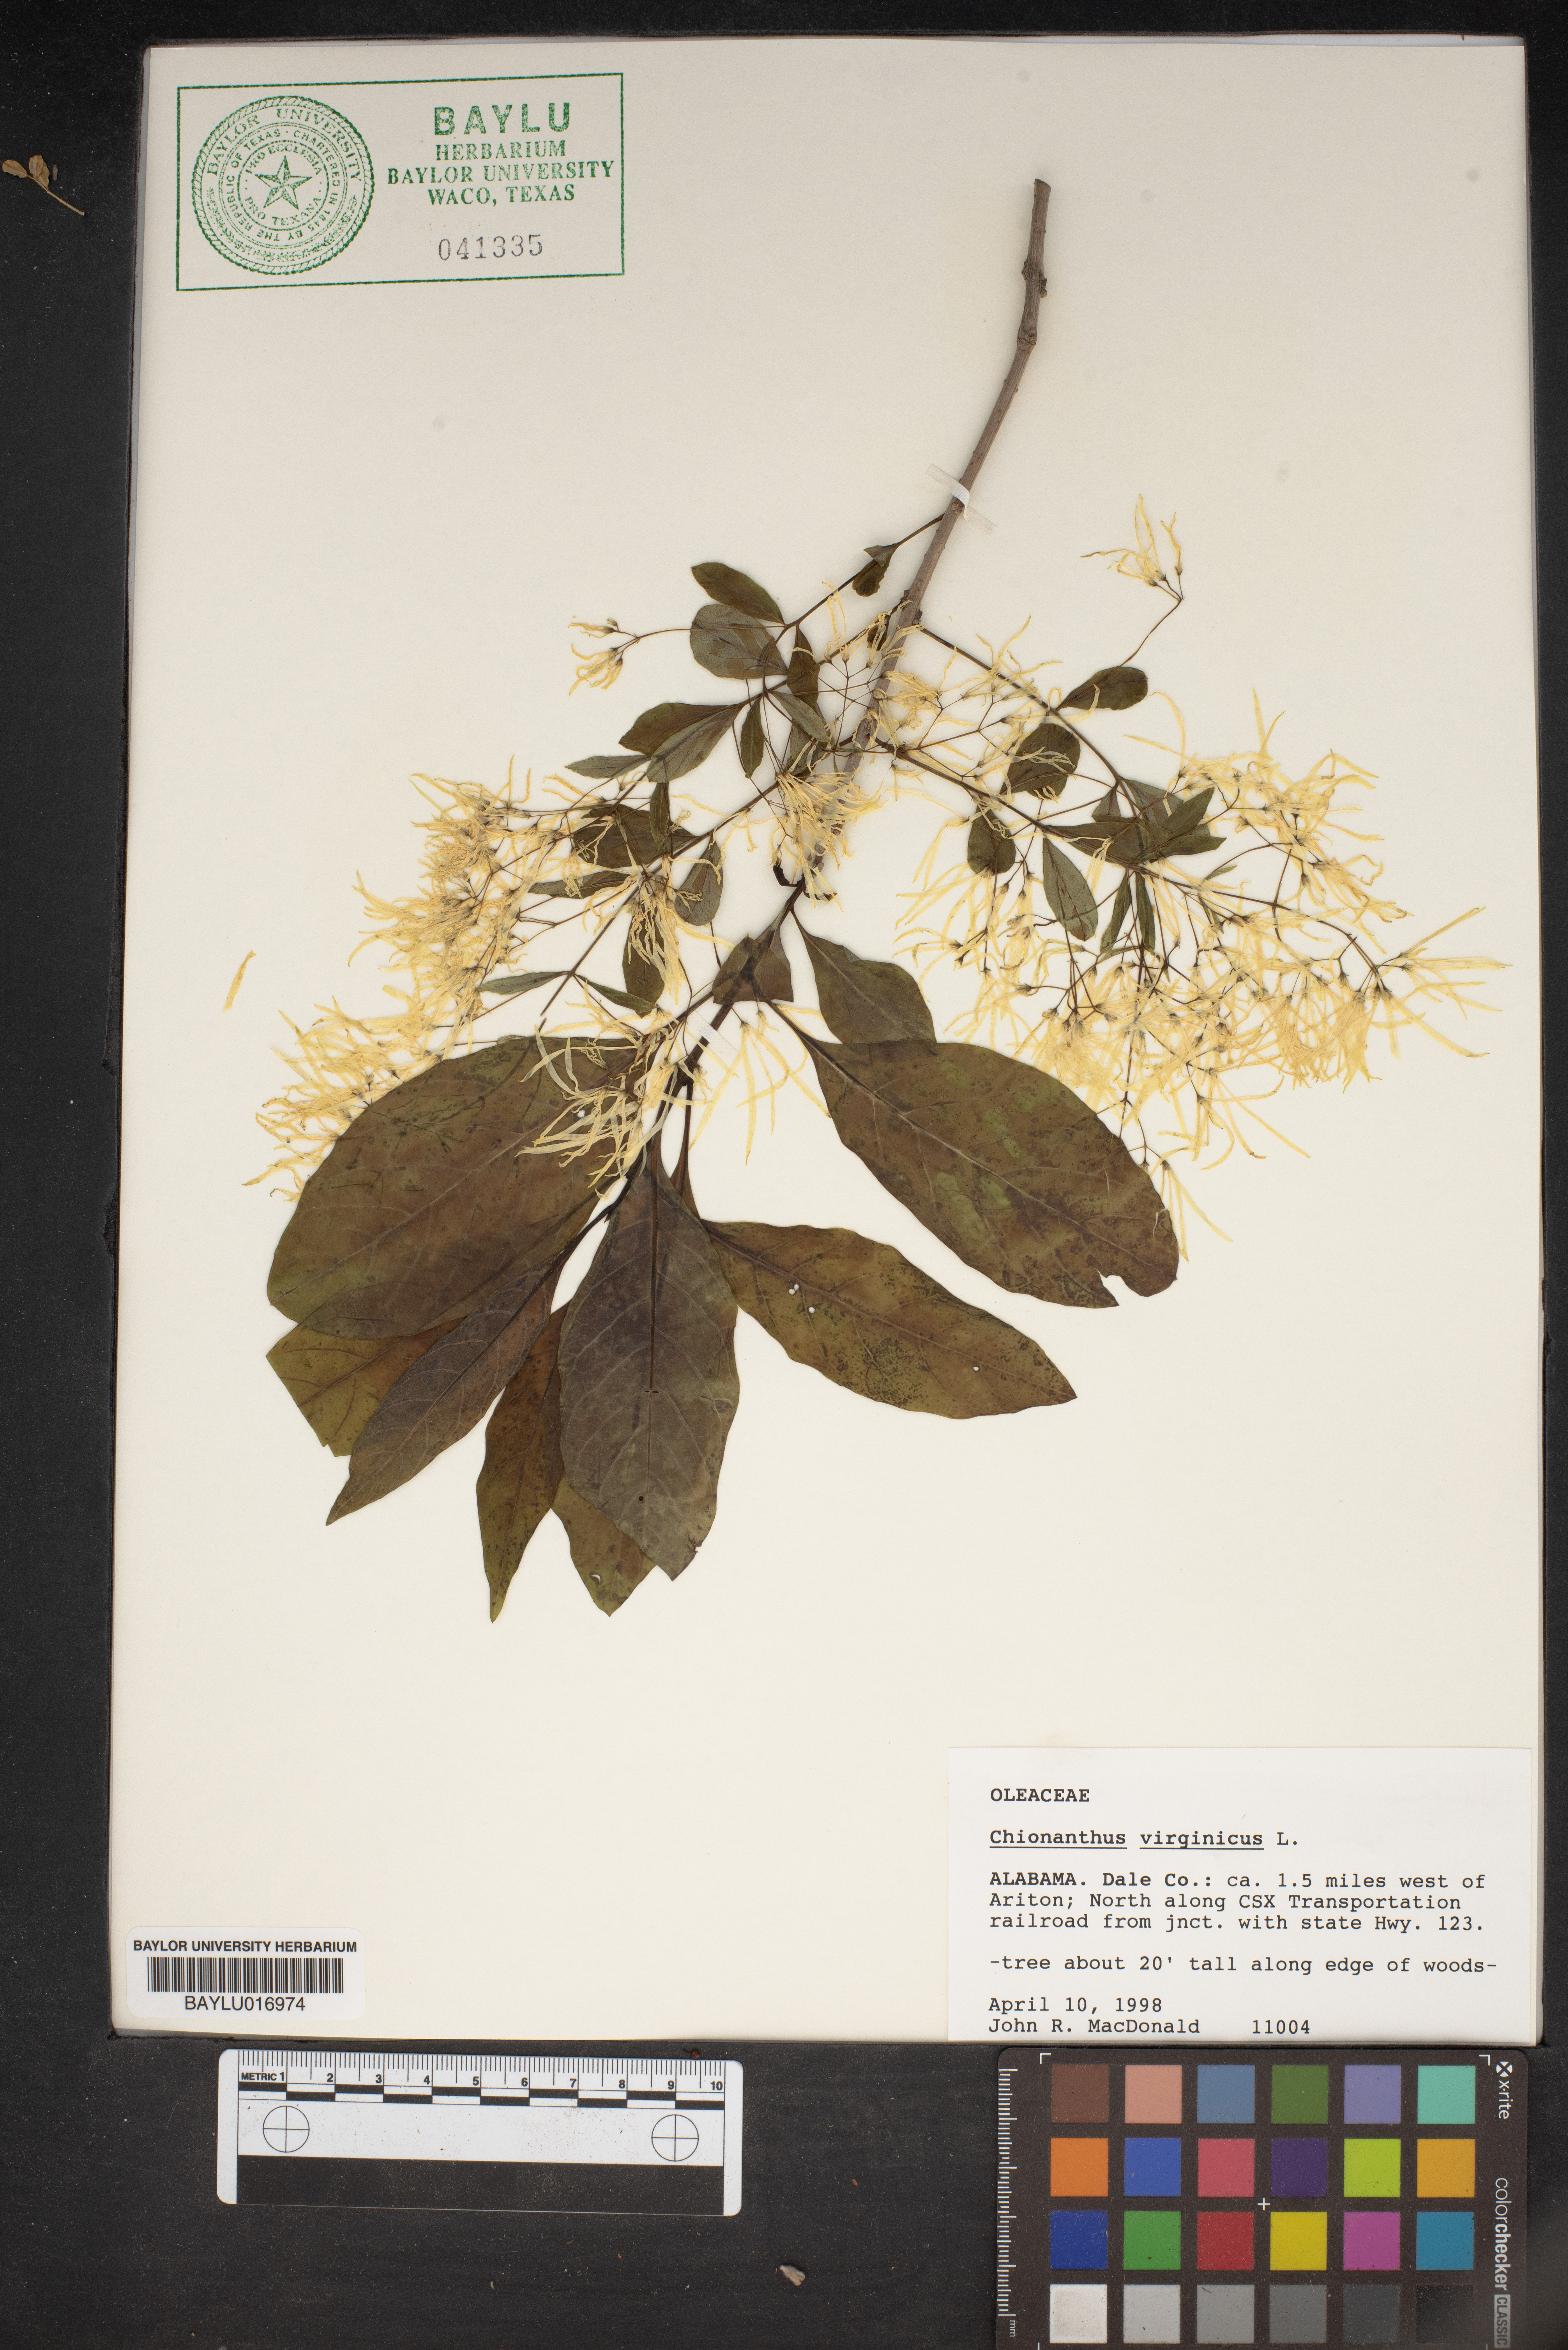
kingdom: Plantae
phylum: Tracheophyta
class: Magnoliopsida
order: Lamiales
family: Oleaceae
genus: Chionanthus
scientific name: Chionanthus virginicus
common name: American fringetree
